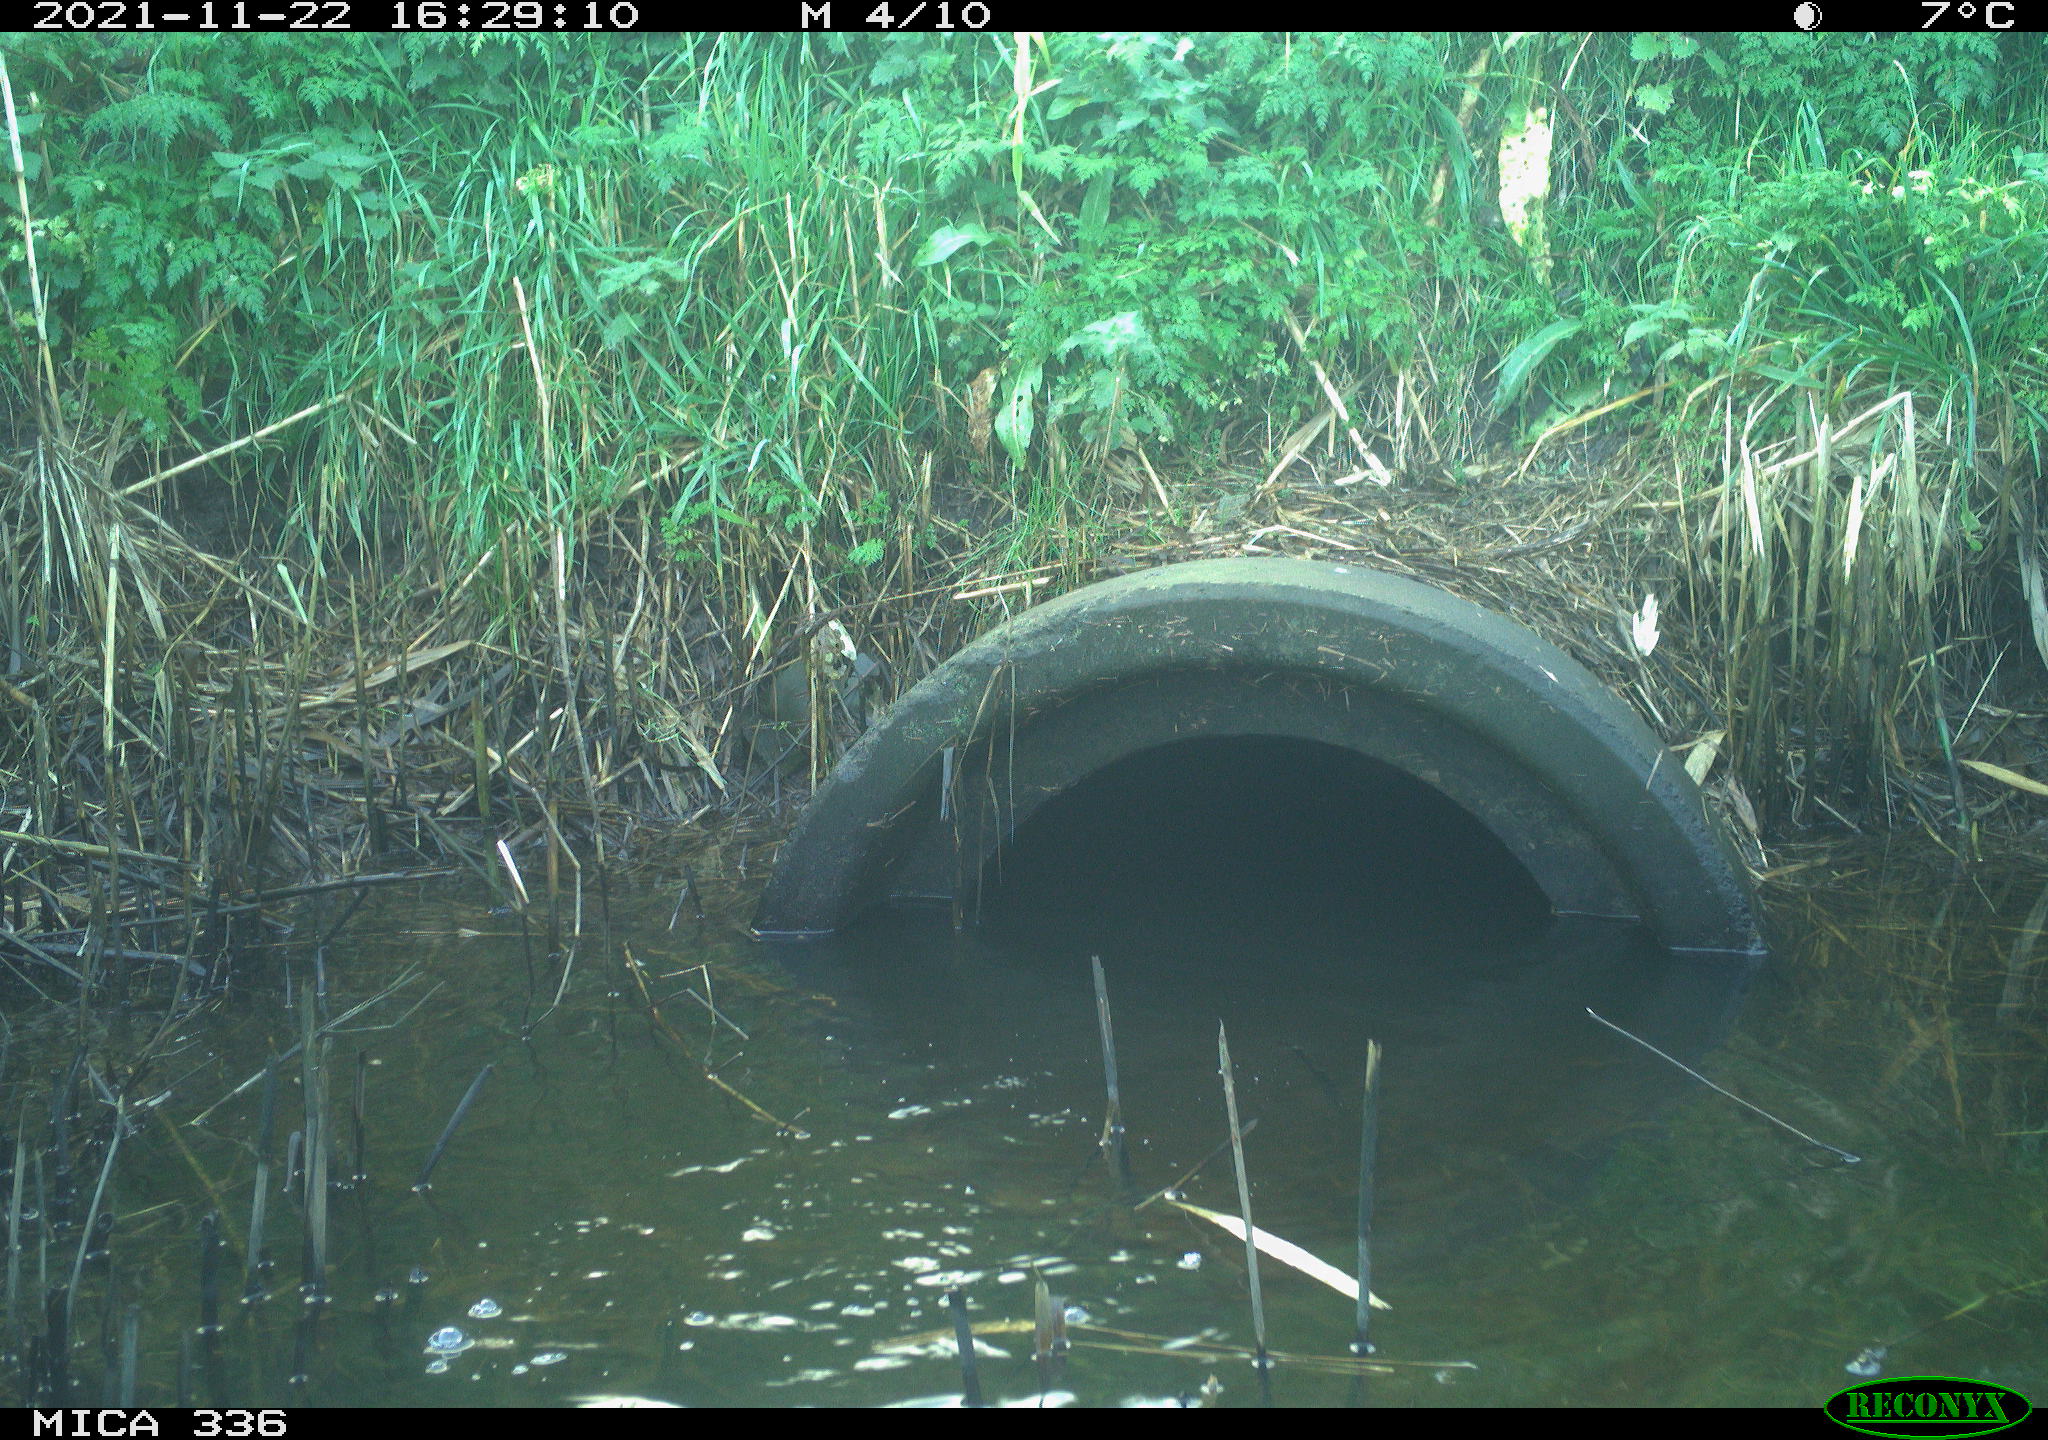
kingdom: Animalia
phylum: Chordata
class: Mammalia
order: Rodentia
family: Cricetidae
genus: Ondatra
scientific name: Ondatra zibethicus
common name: Muskrat
